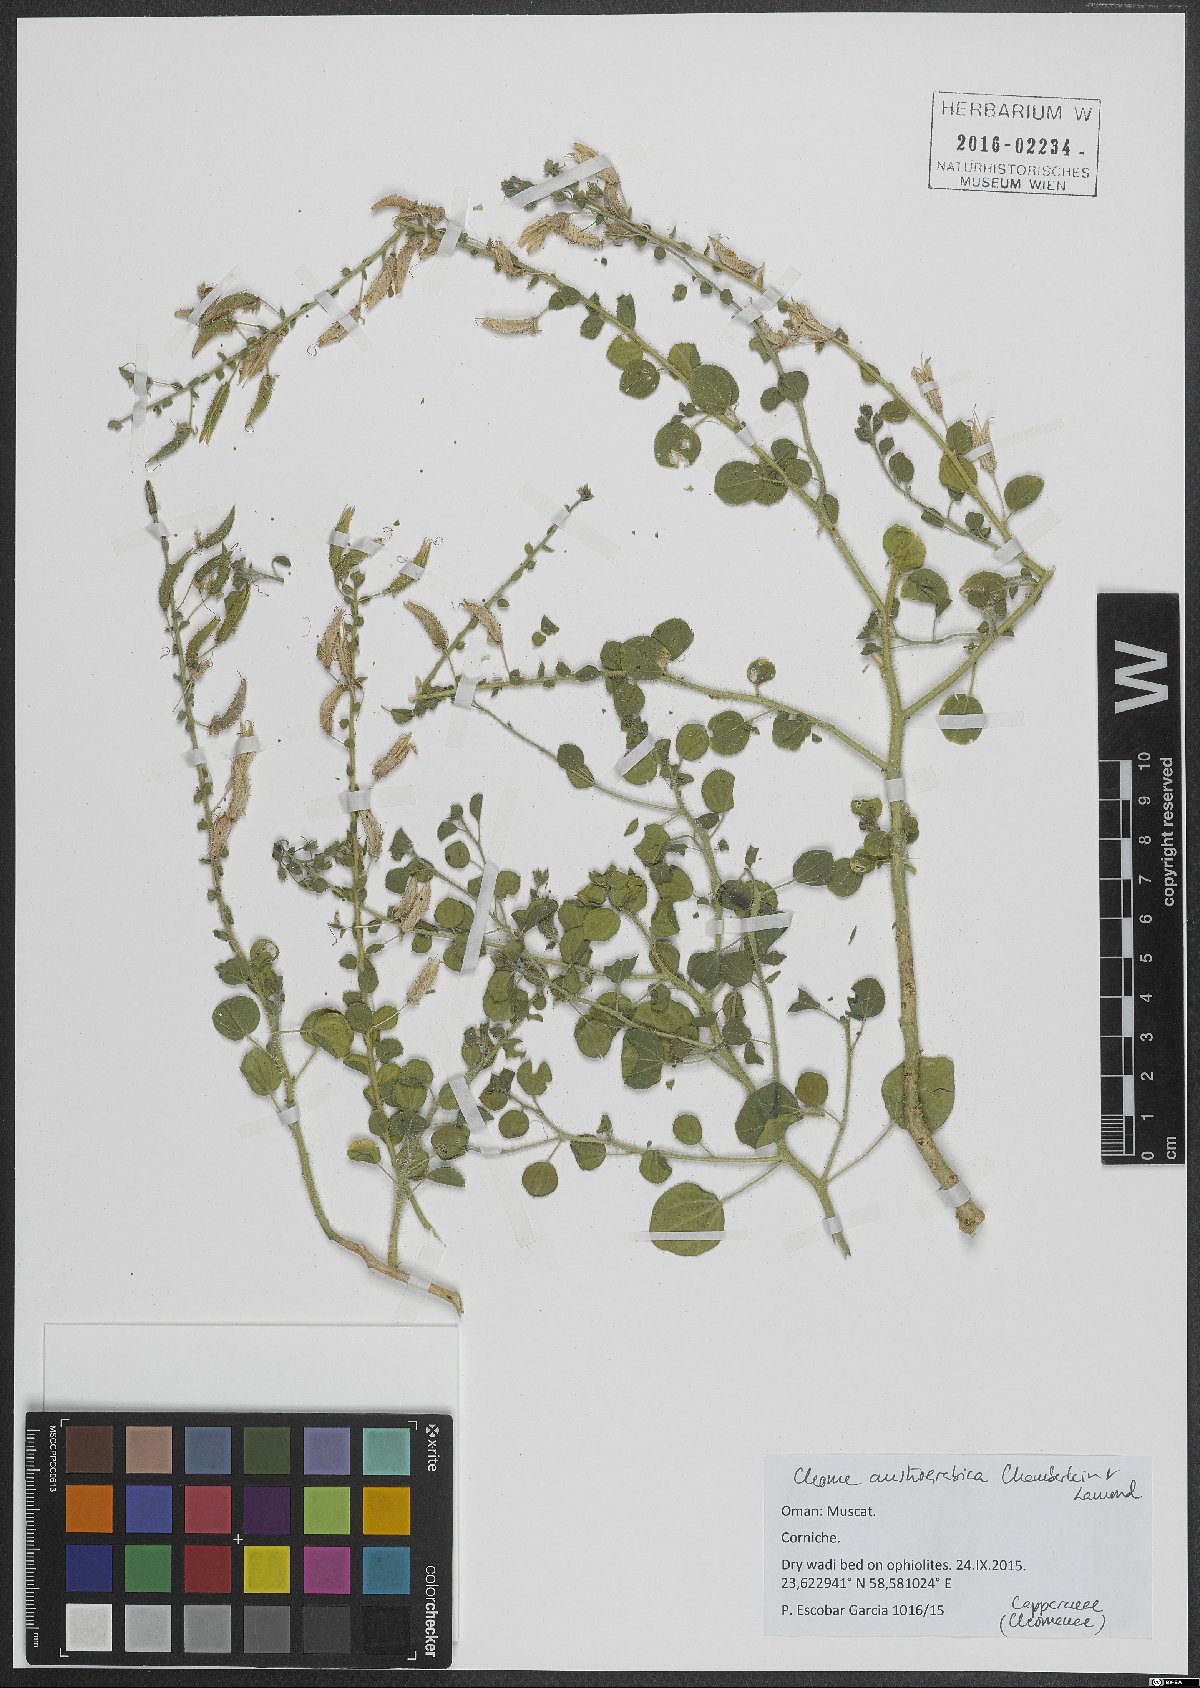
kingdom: Plantae
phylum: Tracheophyta
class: Magnoliopsida
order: Brassicales
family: Cleomaceae
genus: Rorida
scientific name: Rorida droserifolia
